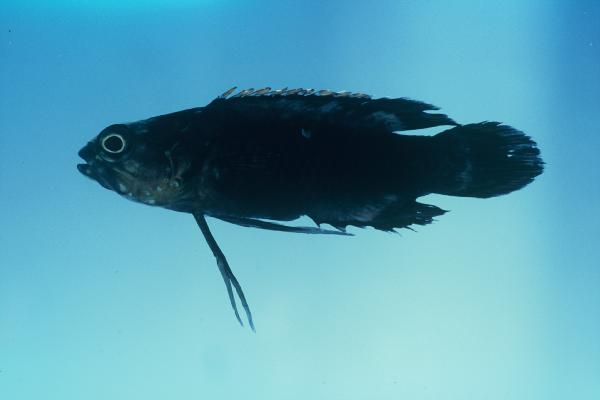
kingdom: Animalia
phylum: Chordata
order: Perciformes
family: Plesiopidae
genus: Plesiops
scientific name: Plesiops coeruleolineatus
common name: Crimsontip longfin
